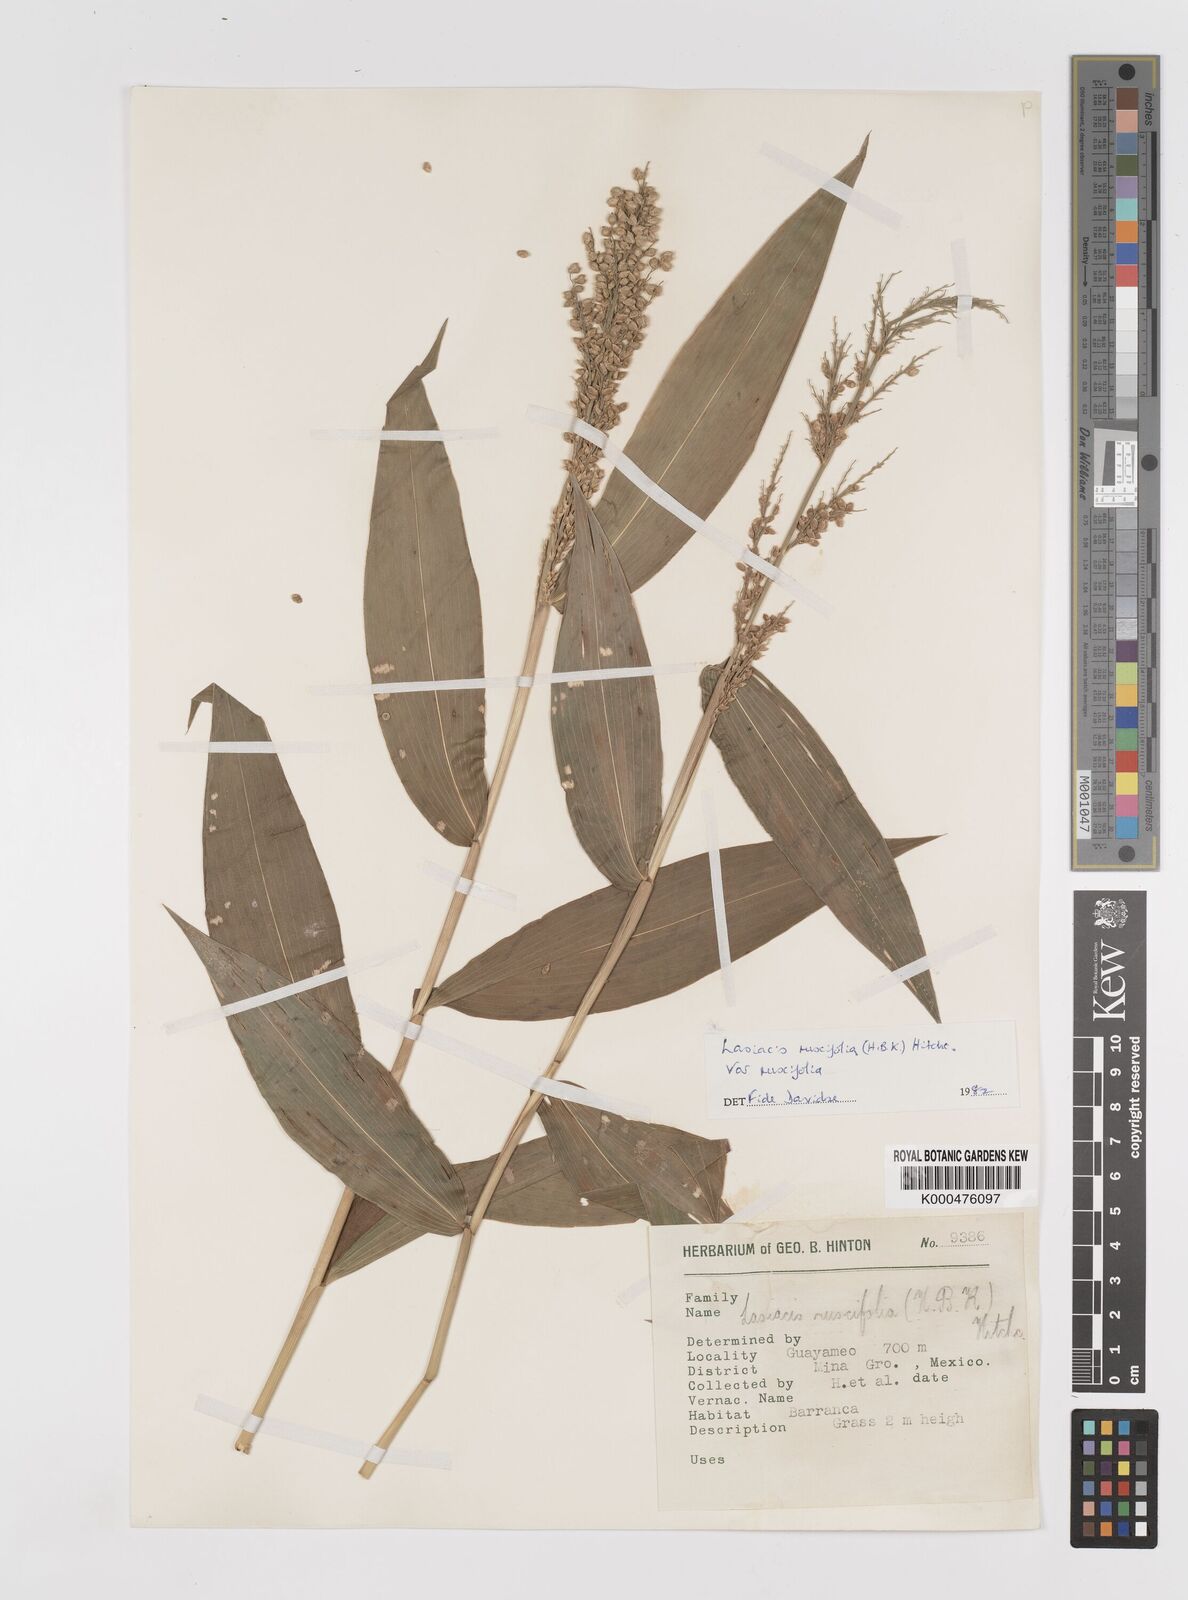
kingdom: Plantae
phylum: Tracheophyta
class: Liliopsida
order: Poales
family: Poaceae
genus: Lasiacis
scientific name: Lasiacis ruscifolia
